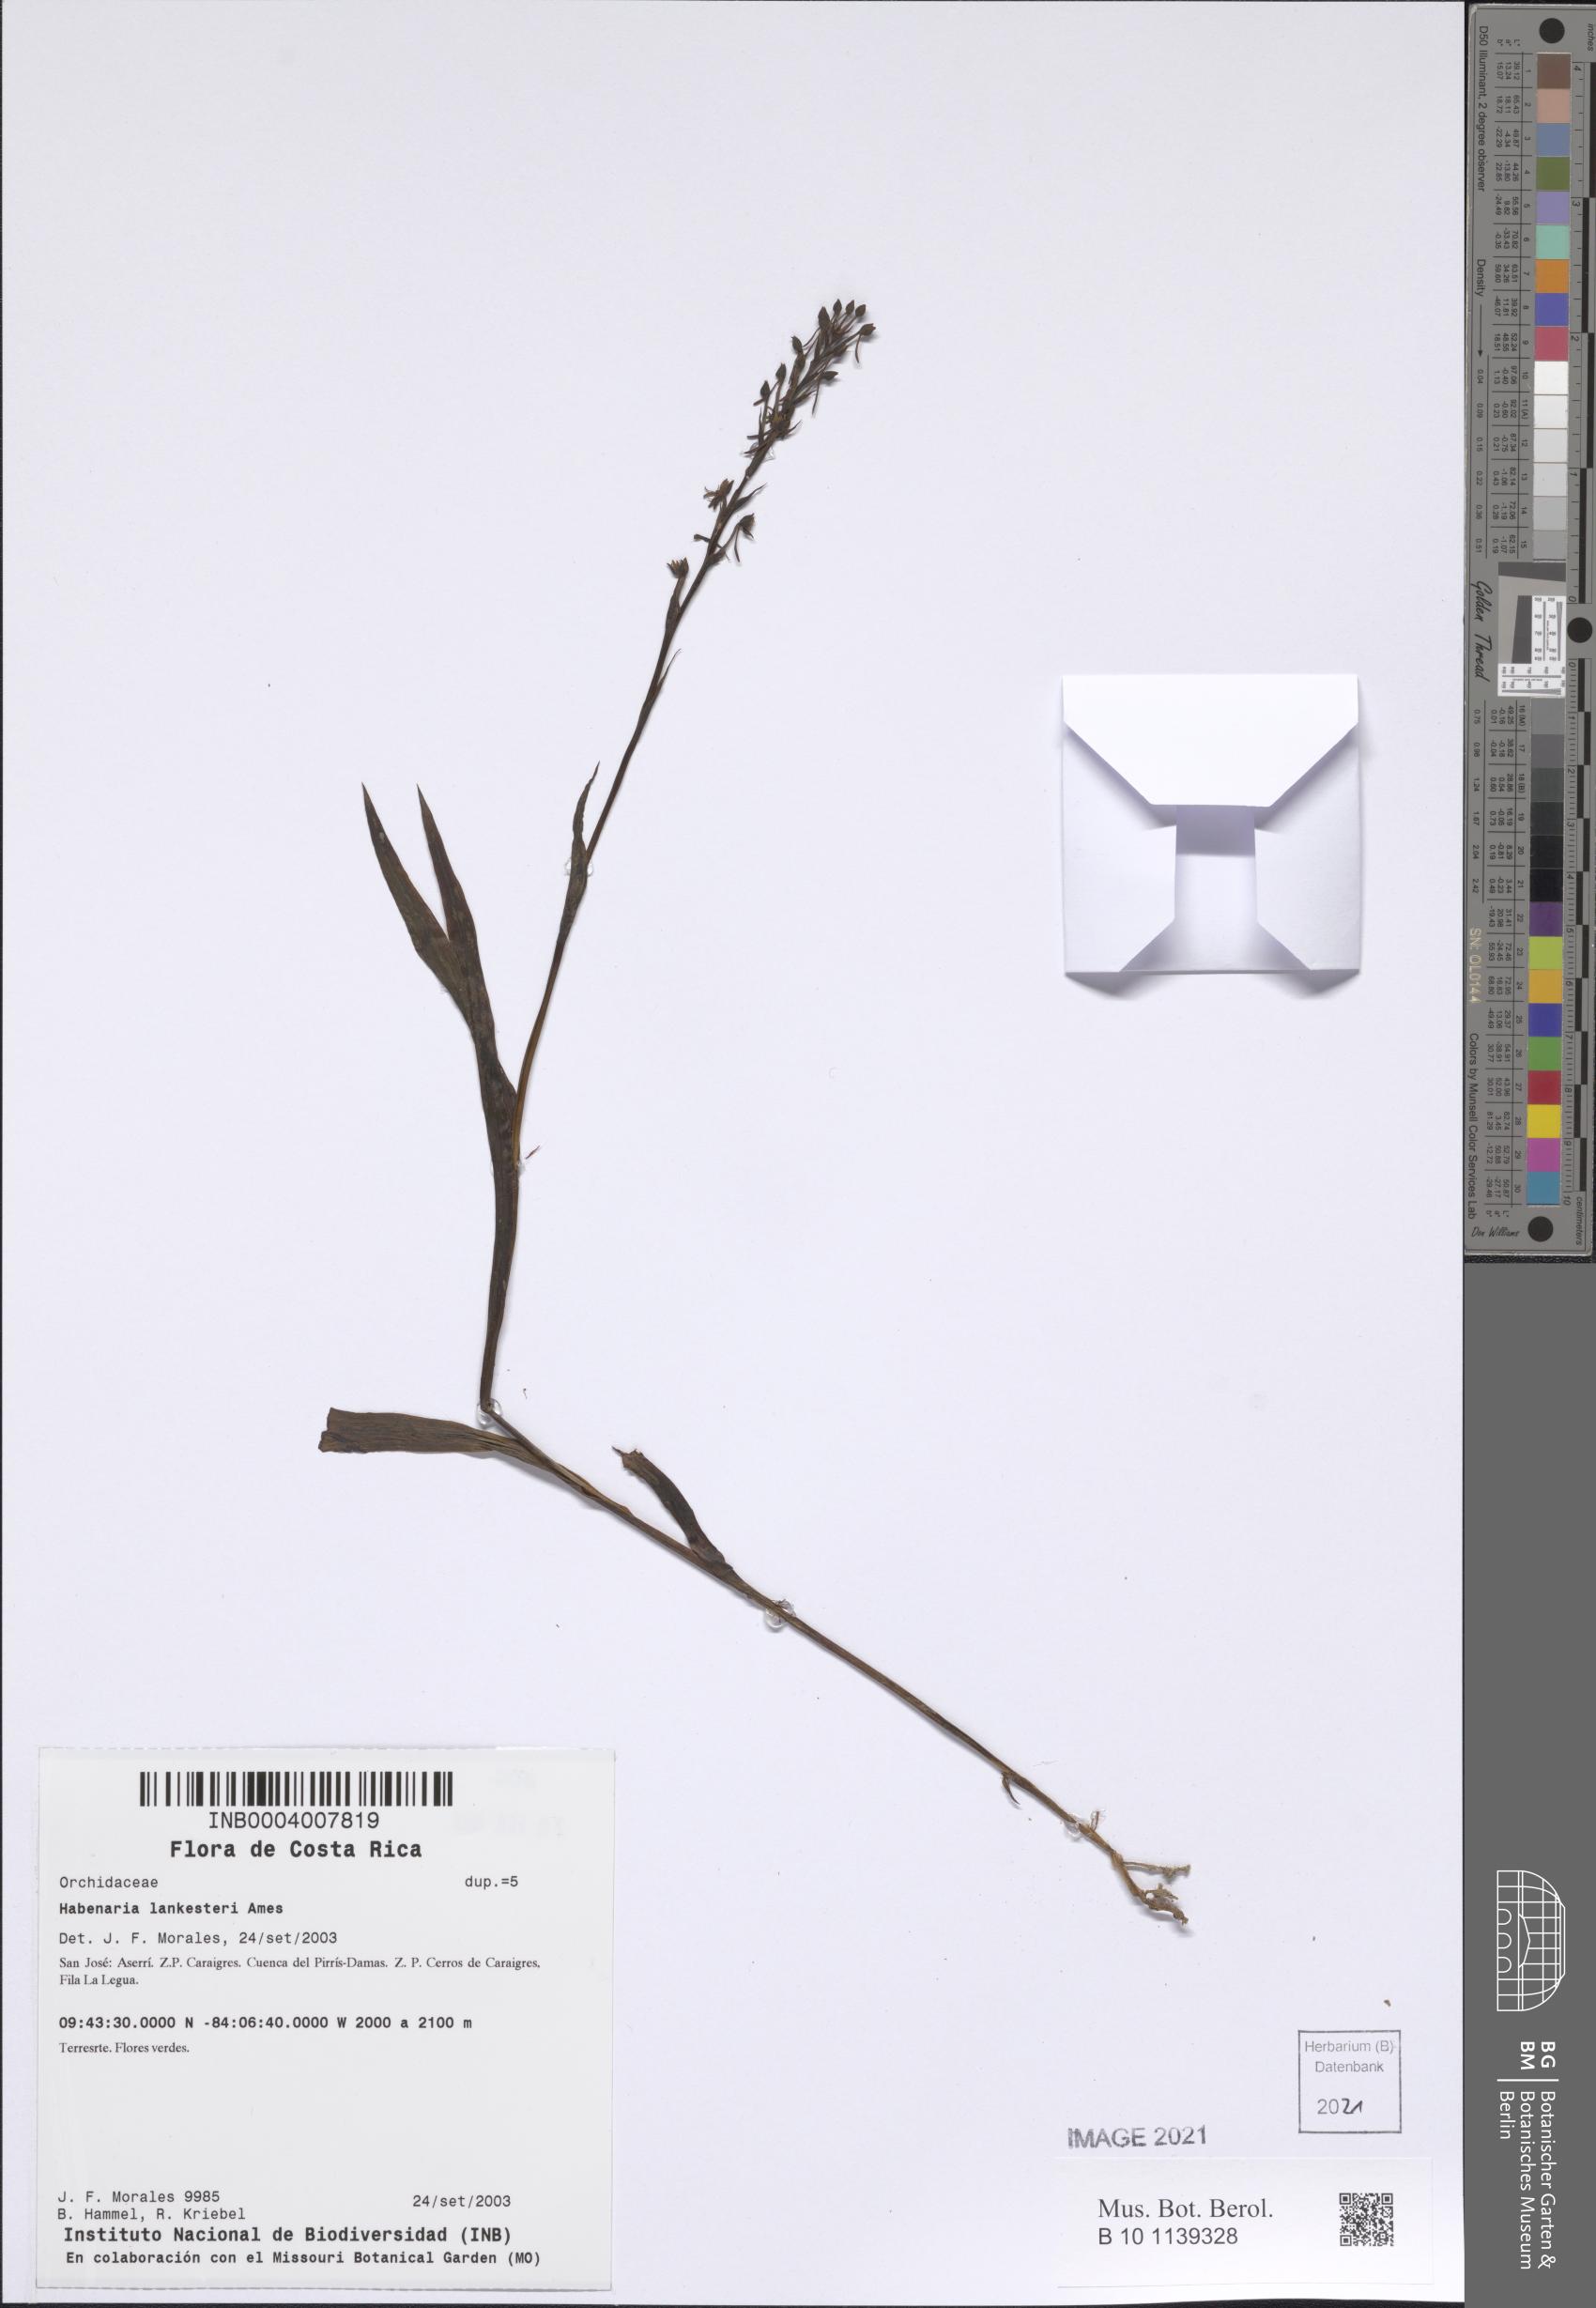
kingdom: Plantae
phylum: Tracheophyta
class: Liliopsida
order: Asparagales
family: Orchidaceae
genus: Habenaria
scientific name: Habenaria lankesteri
